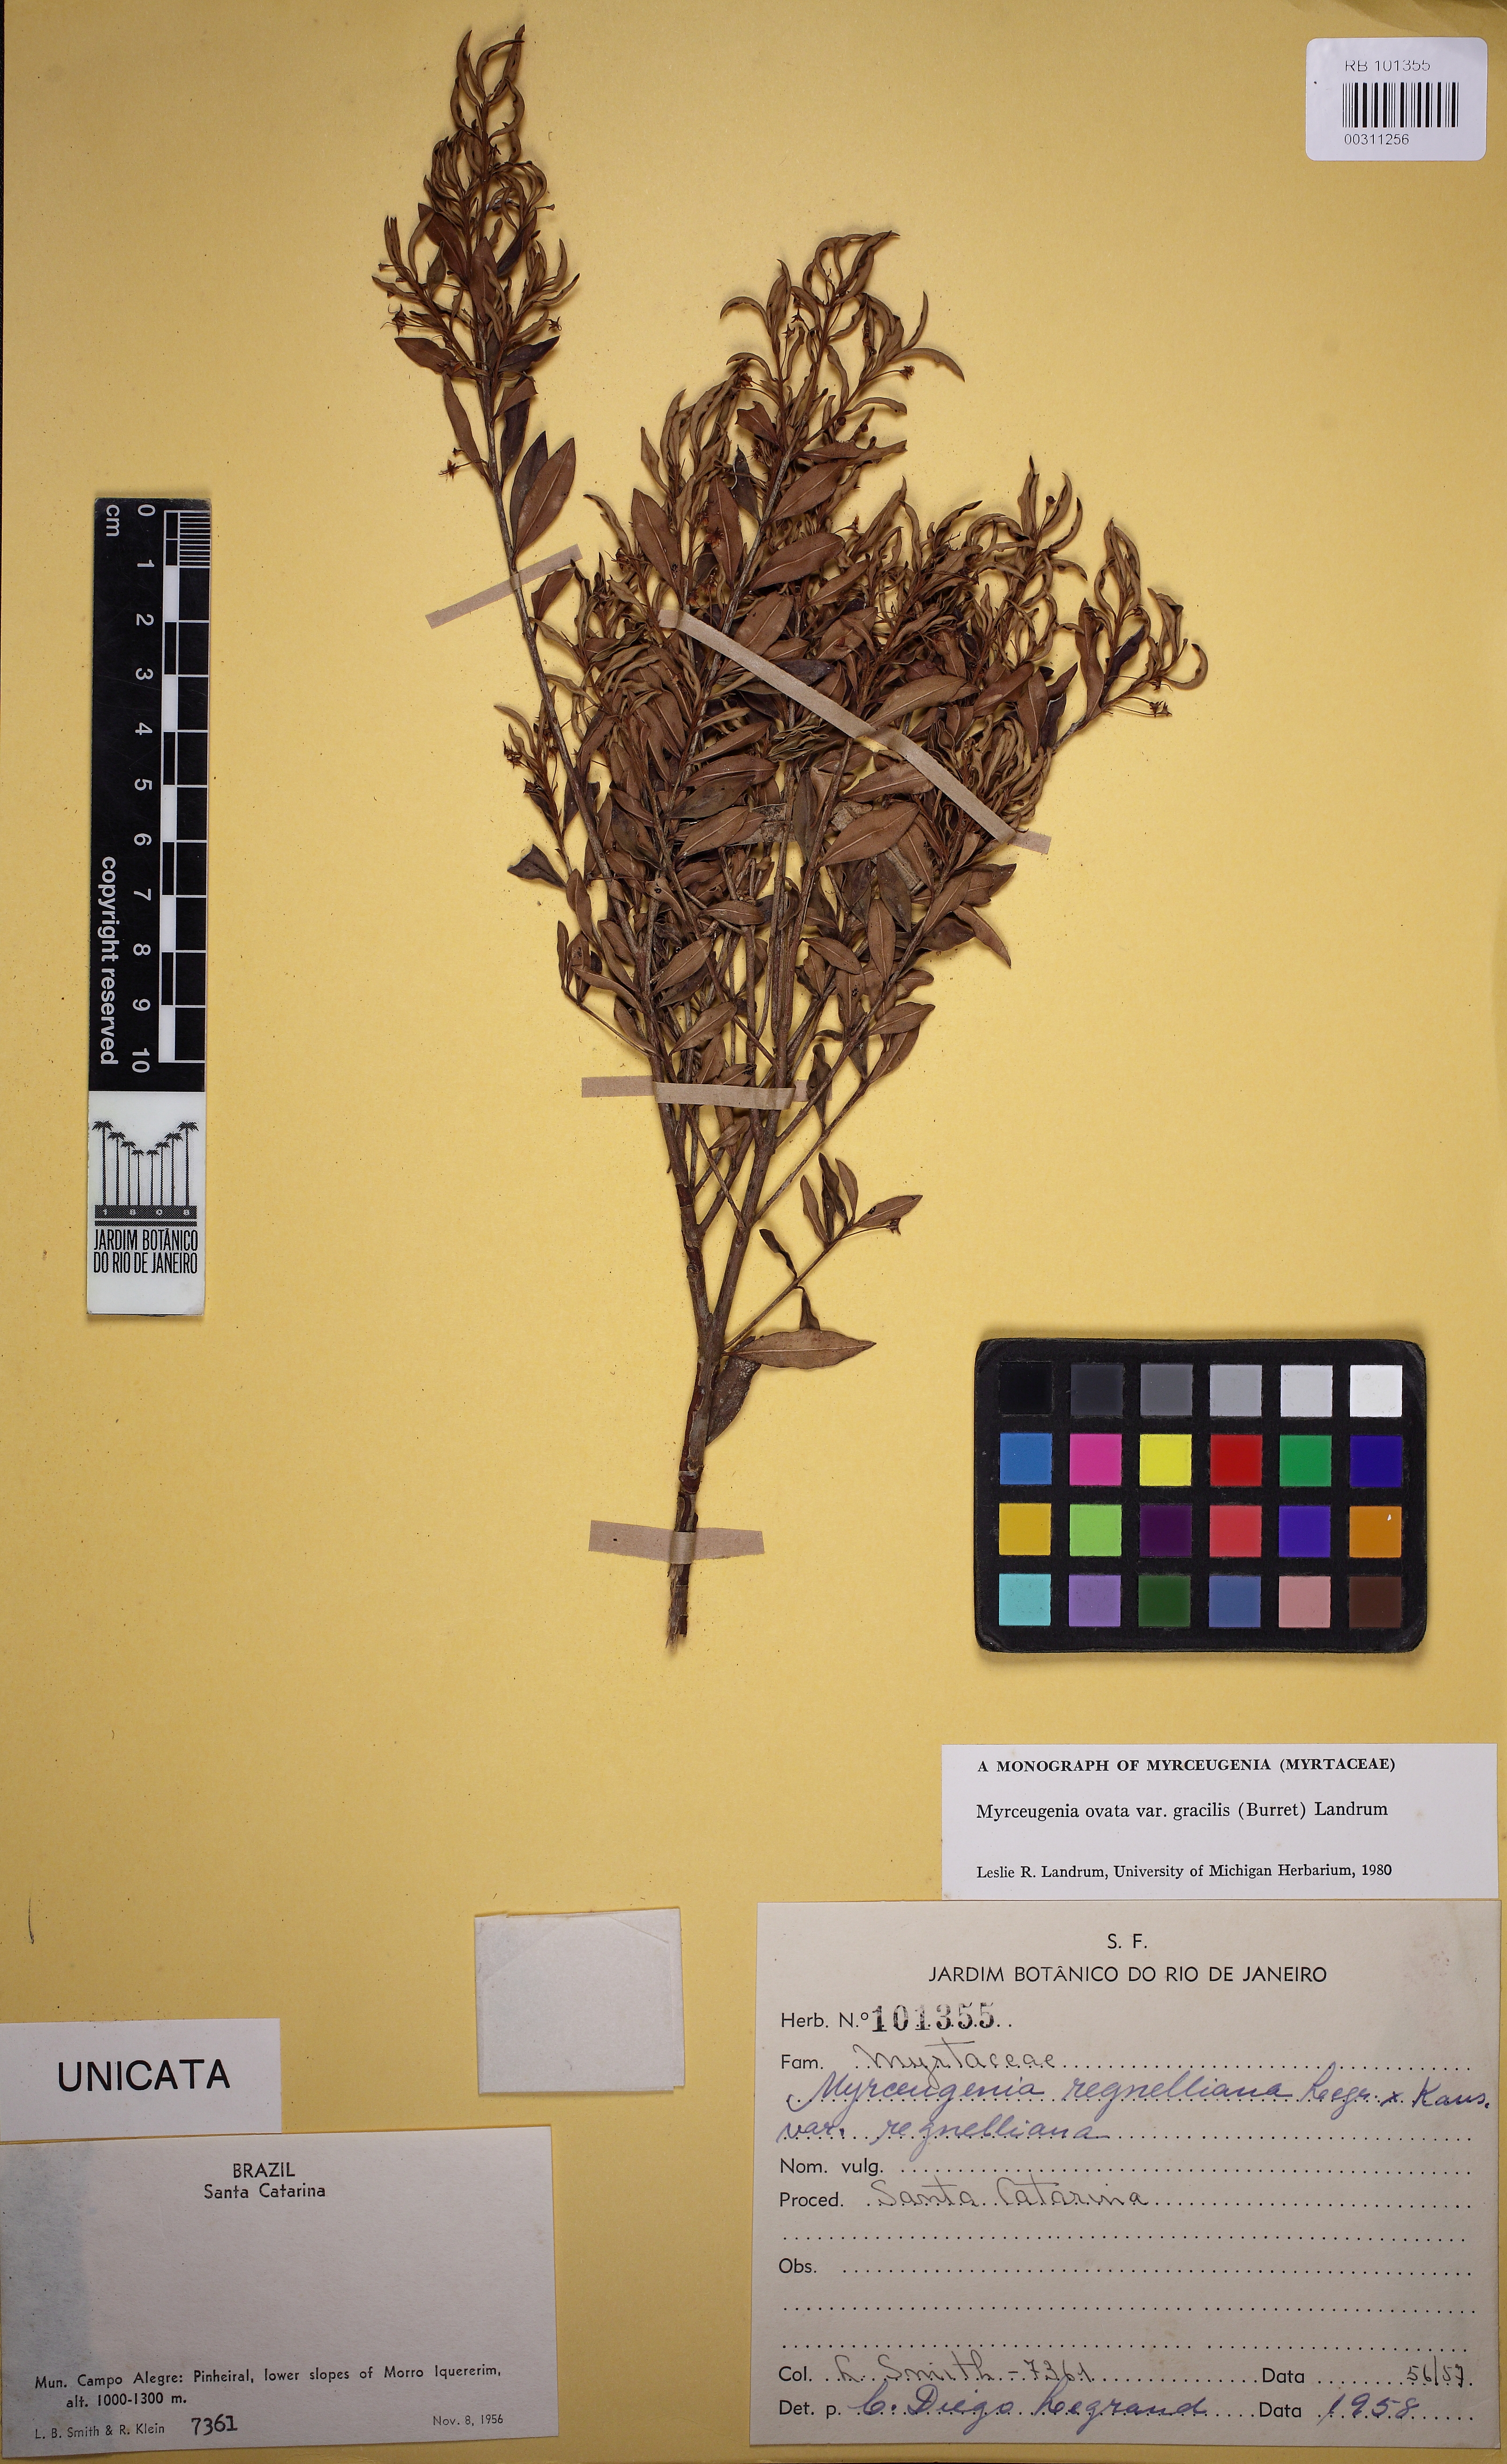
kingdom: Plantae
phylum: Tracheophyta
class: Magnoliopsida
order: Myrtales
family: Myrtaceae
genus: Myrceugenia
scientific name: Myrceugenia ovata
